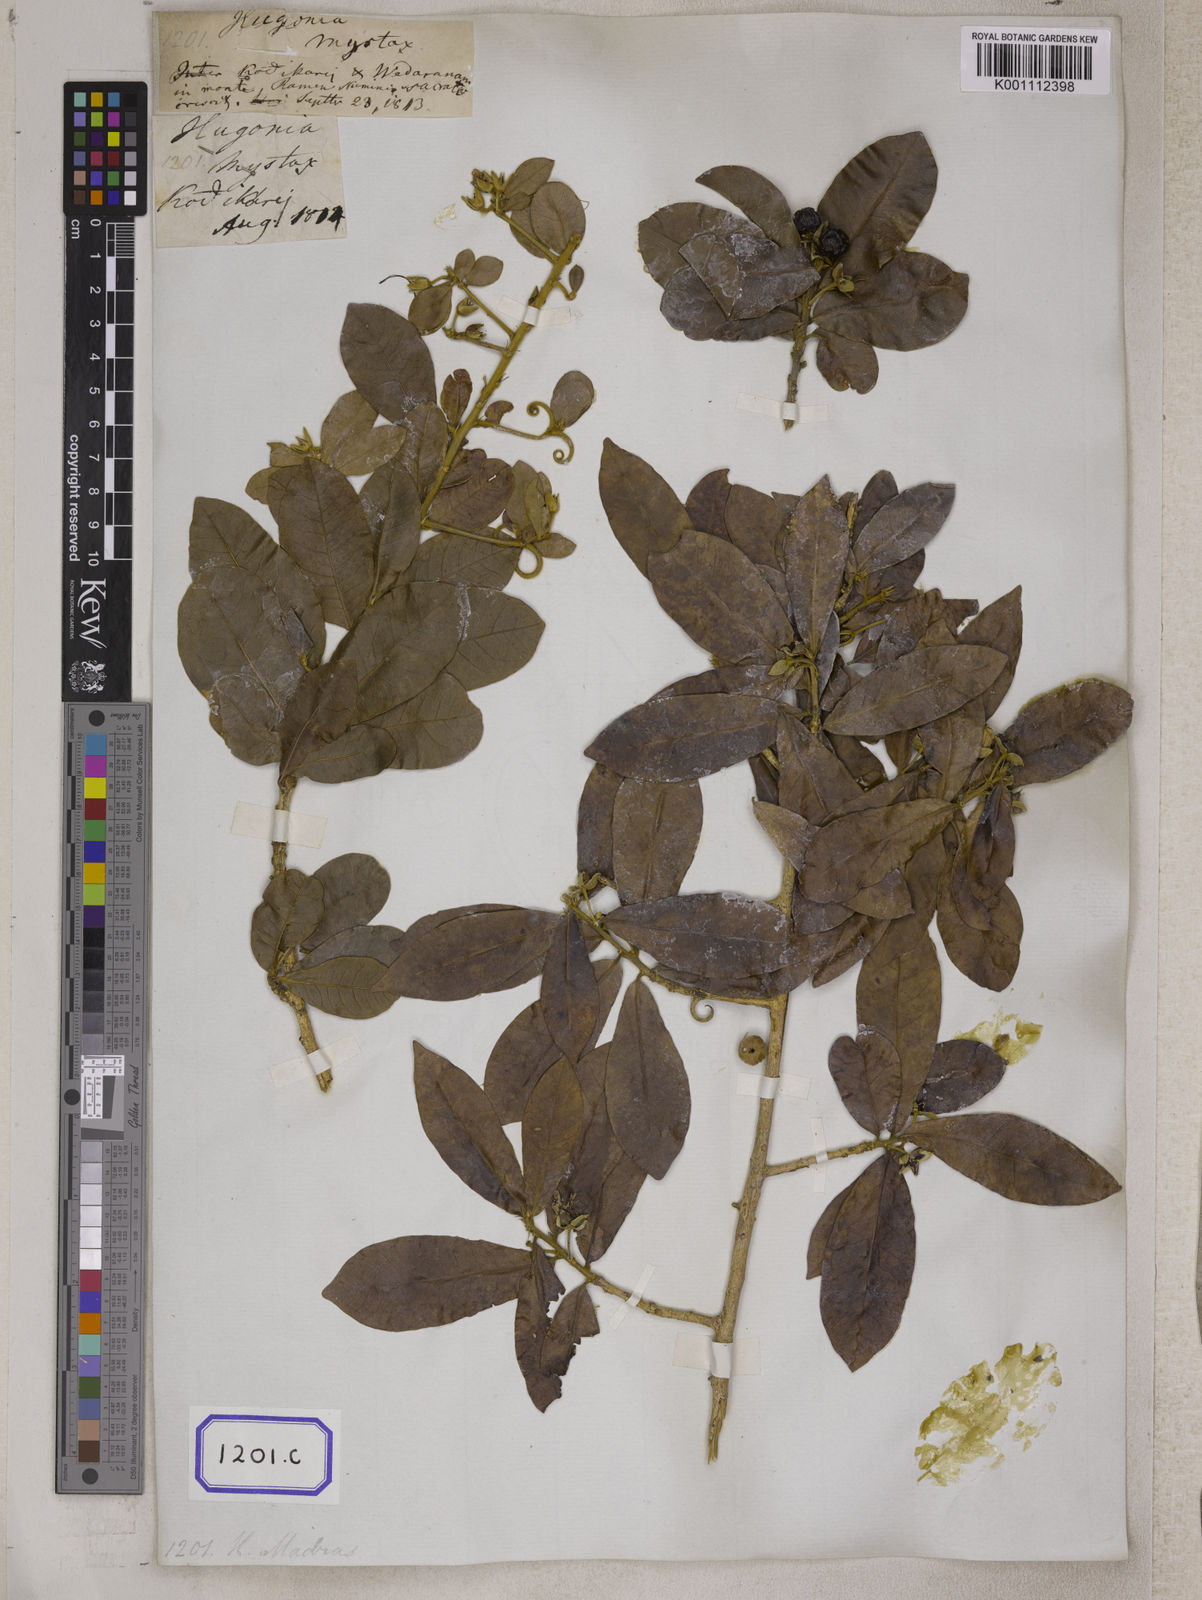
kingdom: Plantae
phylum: Tracheophyta
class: Magnoliopsida
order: Malpighiales
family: Linaceae
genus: Hugonia
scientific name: Hugonia mystax
